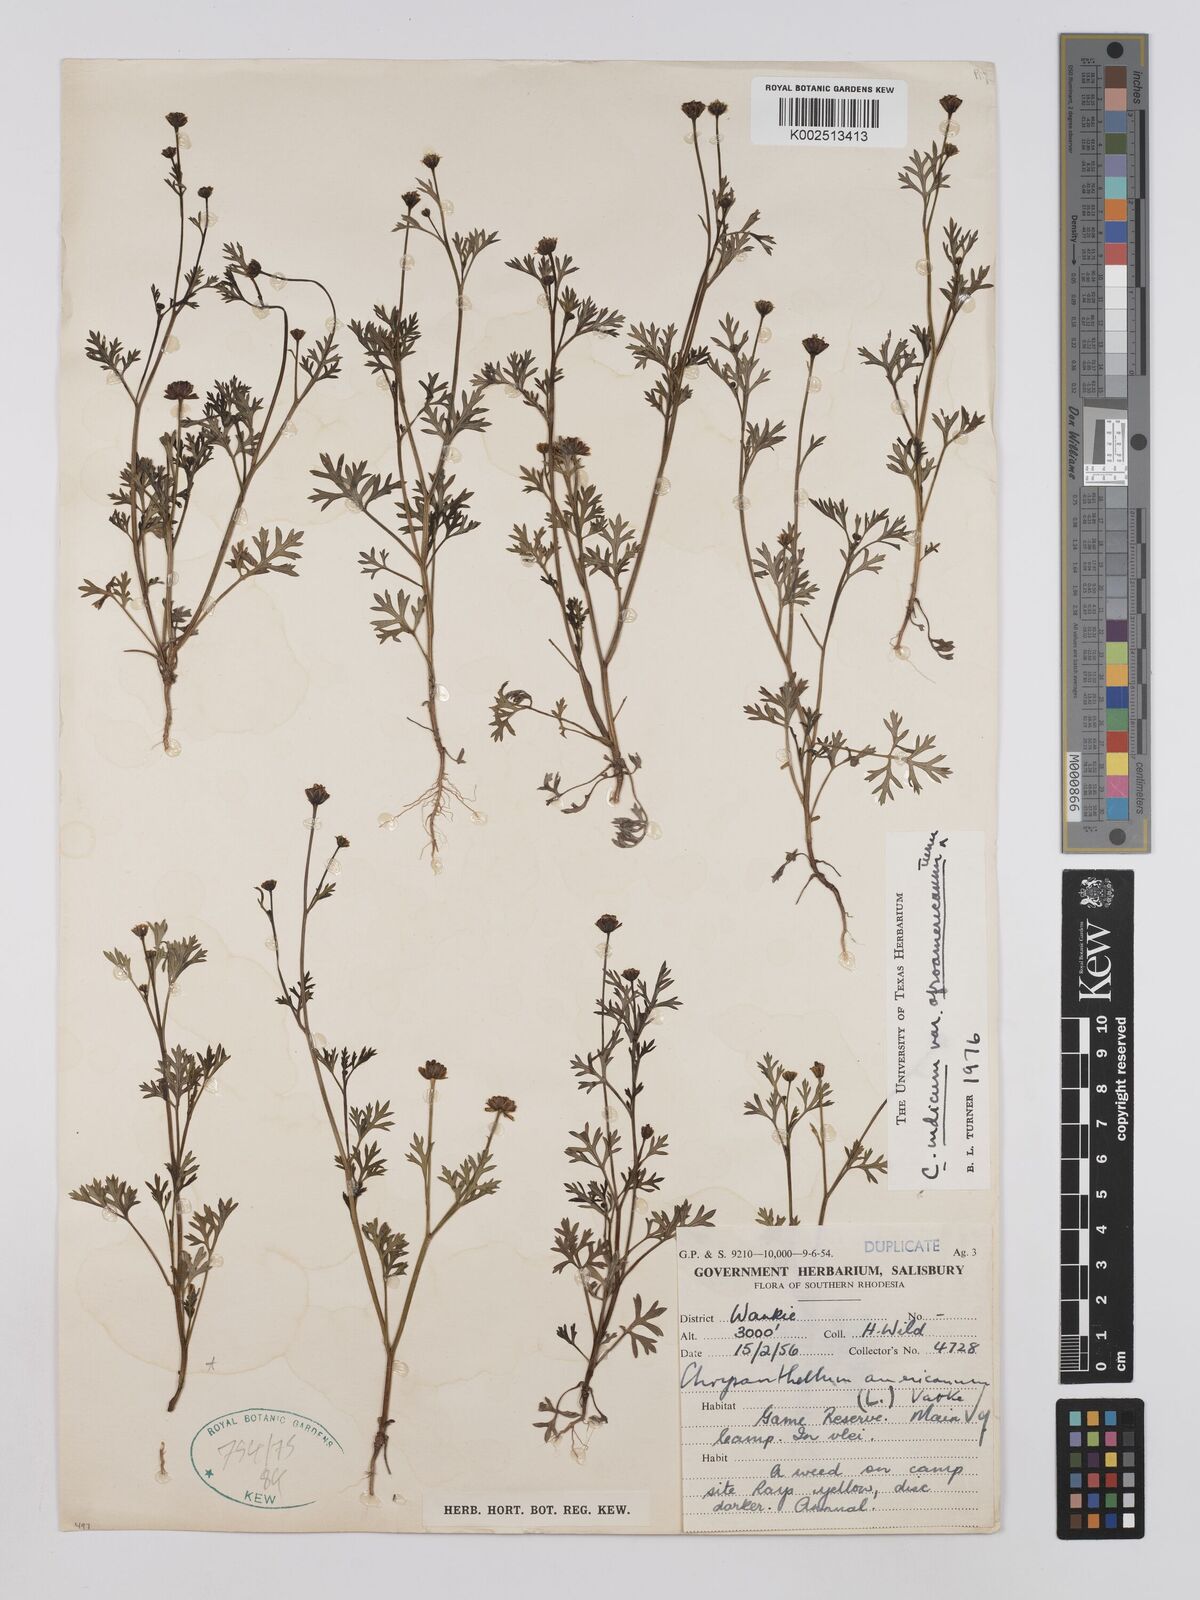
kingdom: Plantae
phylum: Tracheophyta
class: Magnoliopsida
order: Asterales
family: Asteraceae
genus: Chrysanthellum
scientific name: Chrysanthellum indicum
